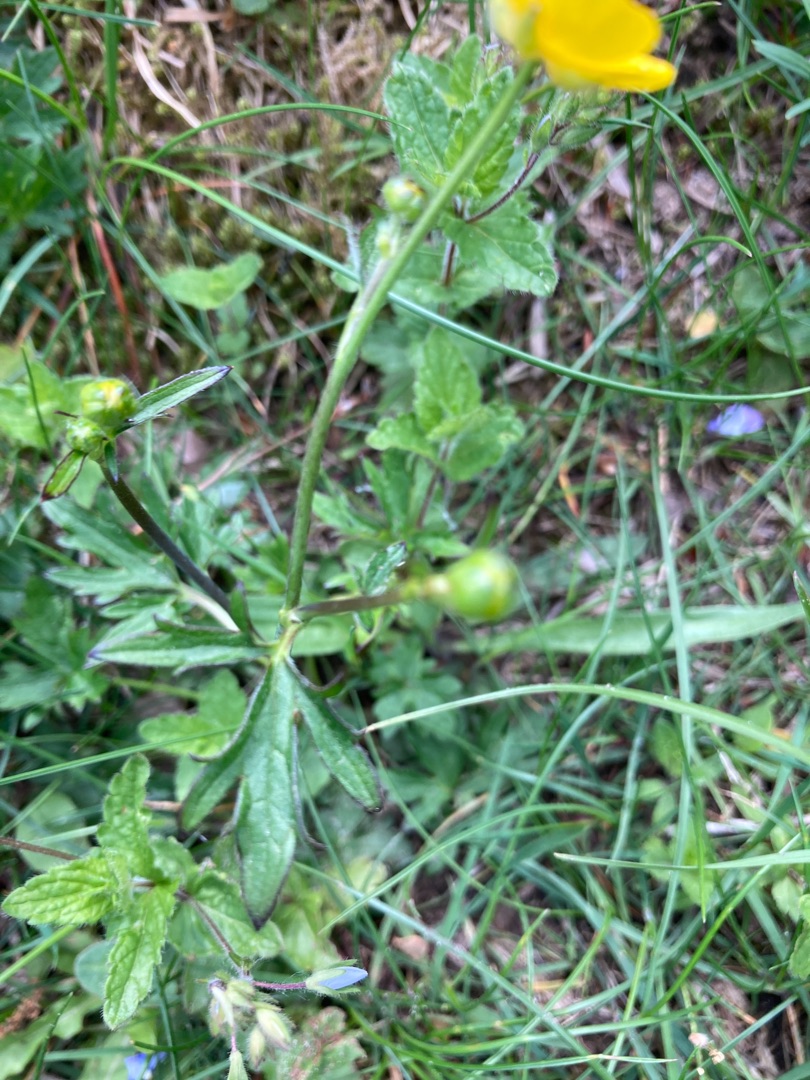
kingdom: Plantae
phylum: Tracheophyta
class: Magnoliopsida
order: Ranunculales
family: Ranunculaceae
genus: Ranunculus
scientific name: Ranunculus acris
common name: Bidende ranunkel
